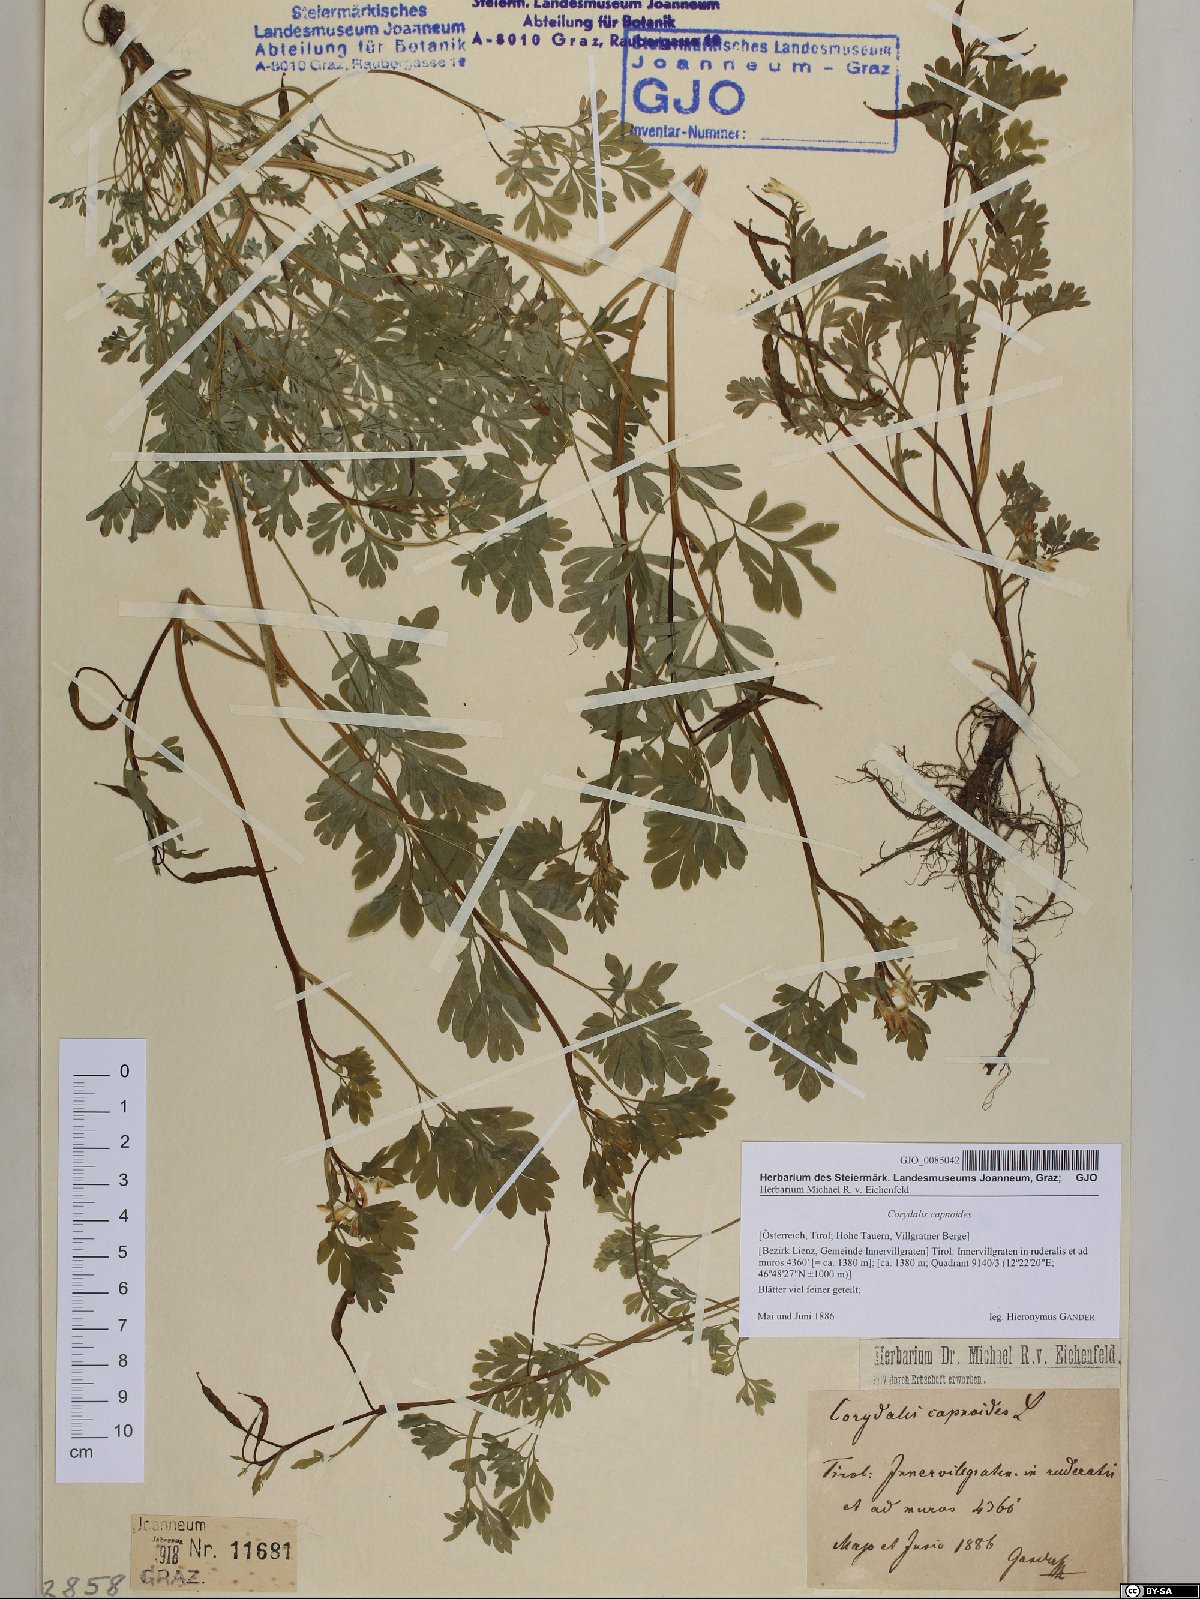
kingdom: Plantae
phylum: Tracheophyta
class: Magnoliopsida
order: Ranunculales
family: Papaveraceae
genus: Corydalis
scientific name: Corydalis capnoides
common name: Beaked corydalis
